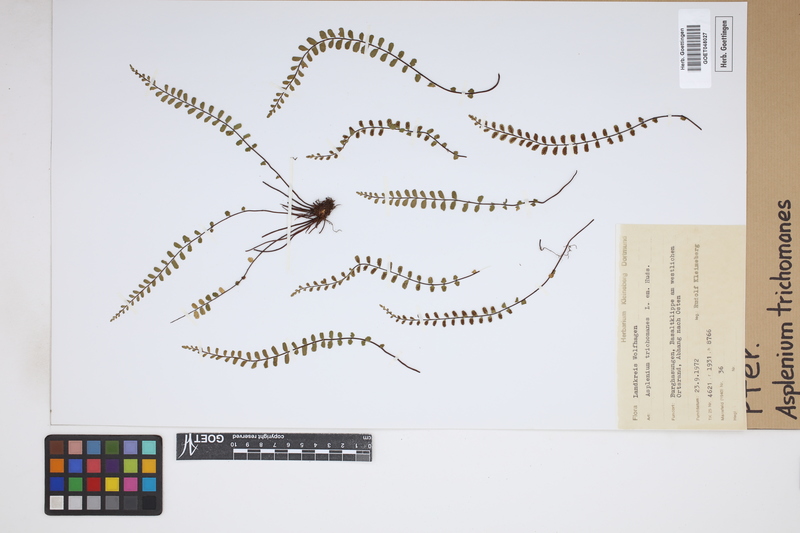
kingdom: Plantae
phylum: Tracheophyta
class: Polypodiopsida
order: Polypodiales
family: Aspleniaceae
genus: Asplenium
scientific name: Asplenium trichomanes
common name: Maidenhair spleenwort
